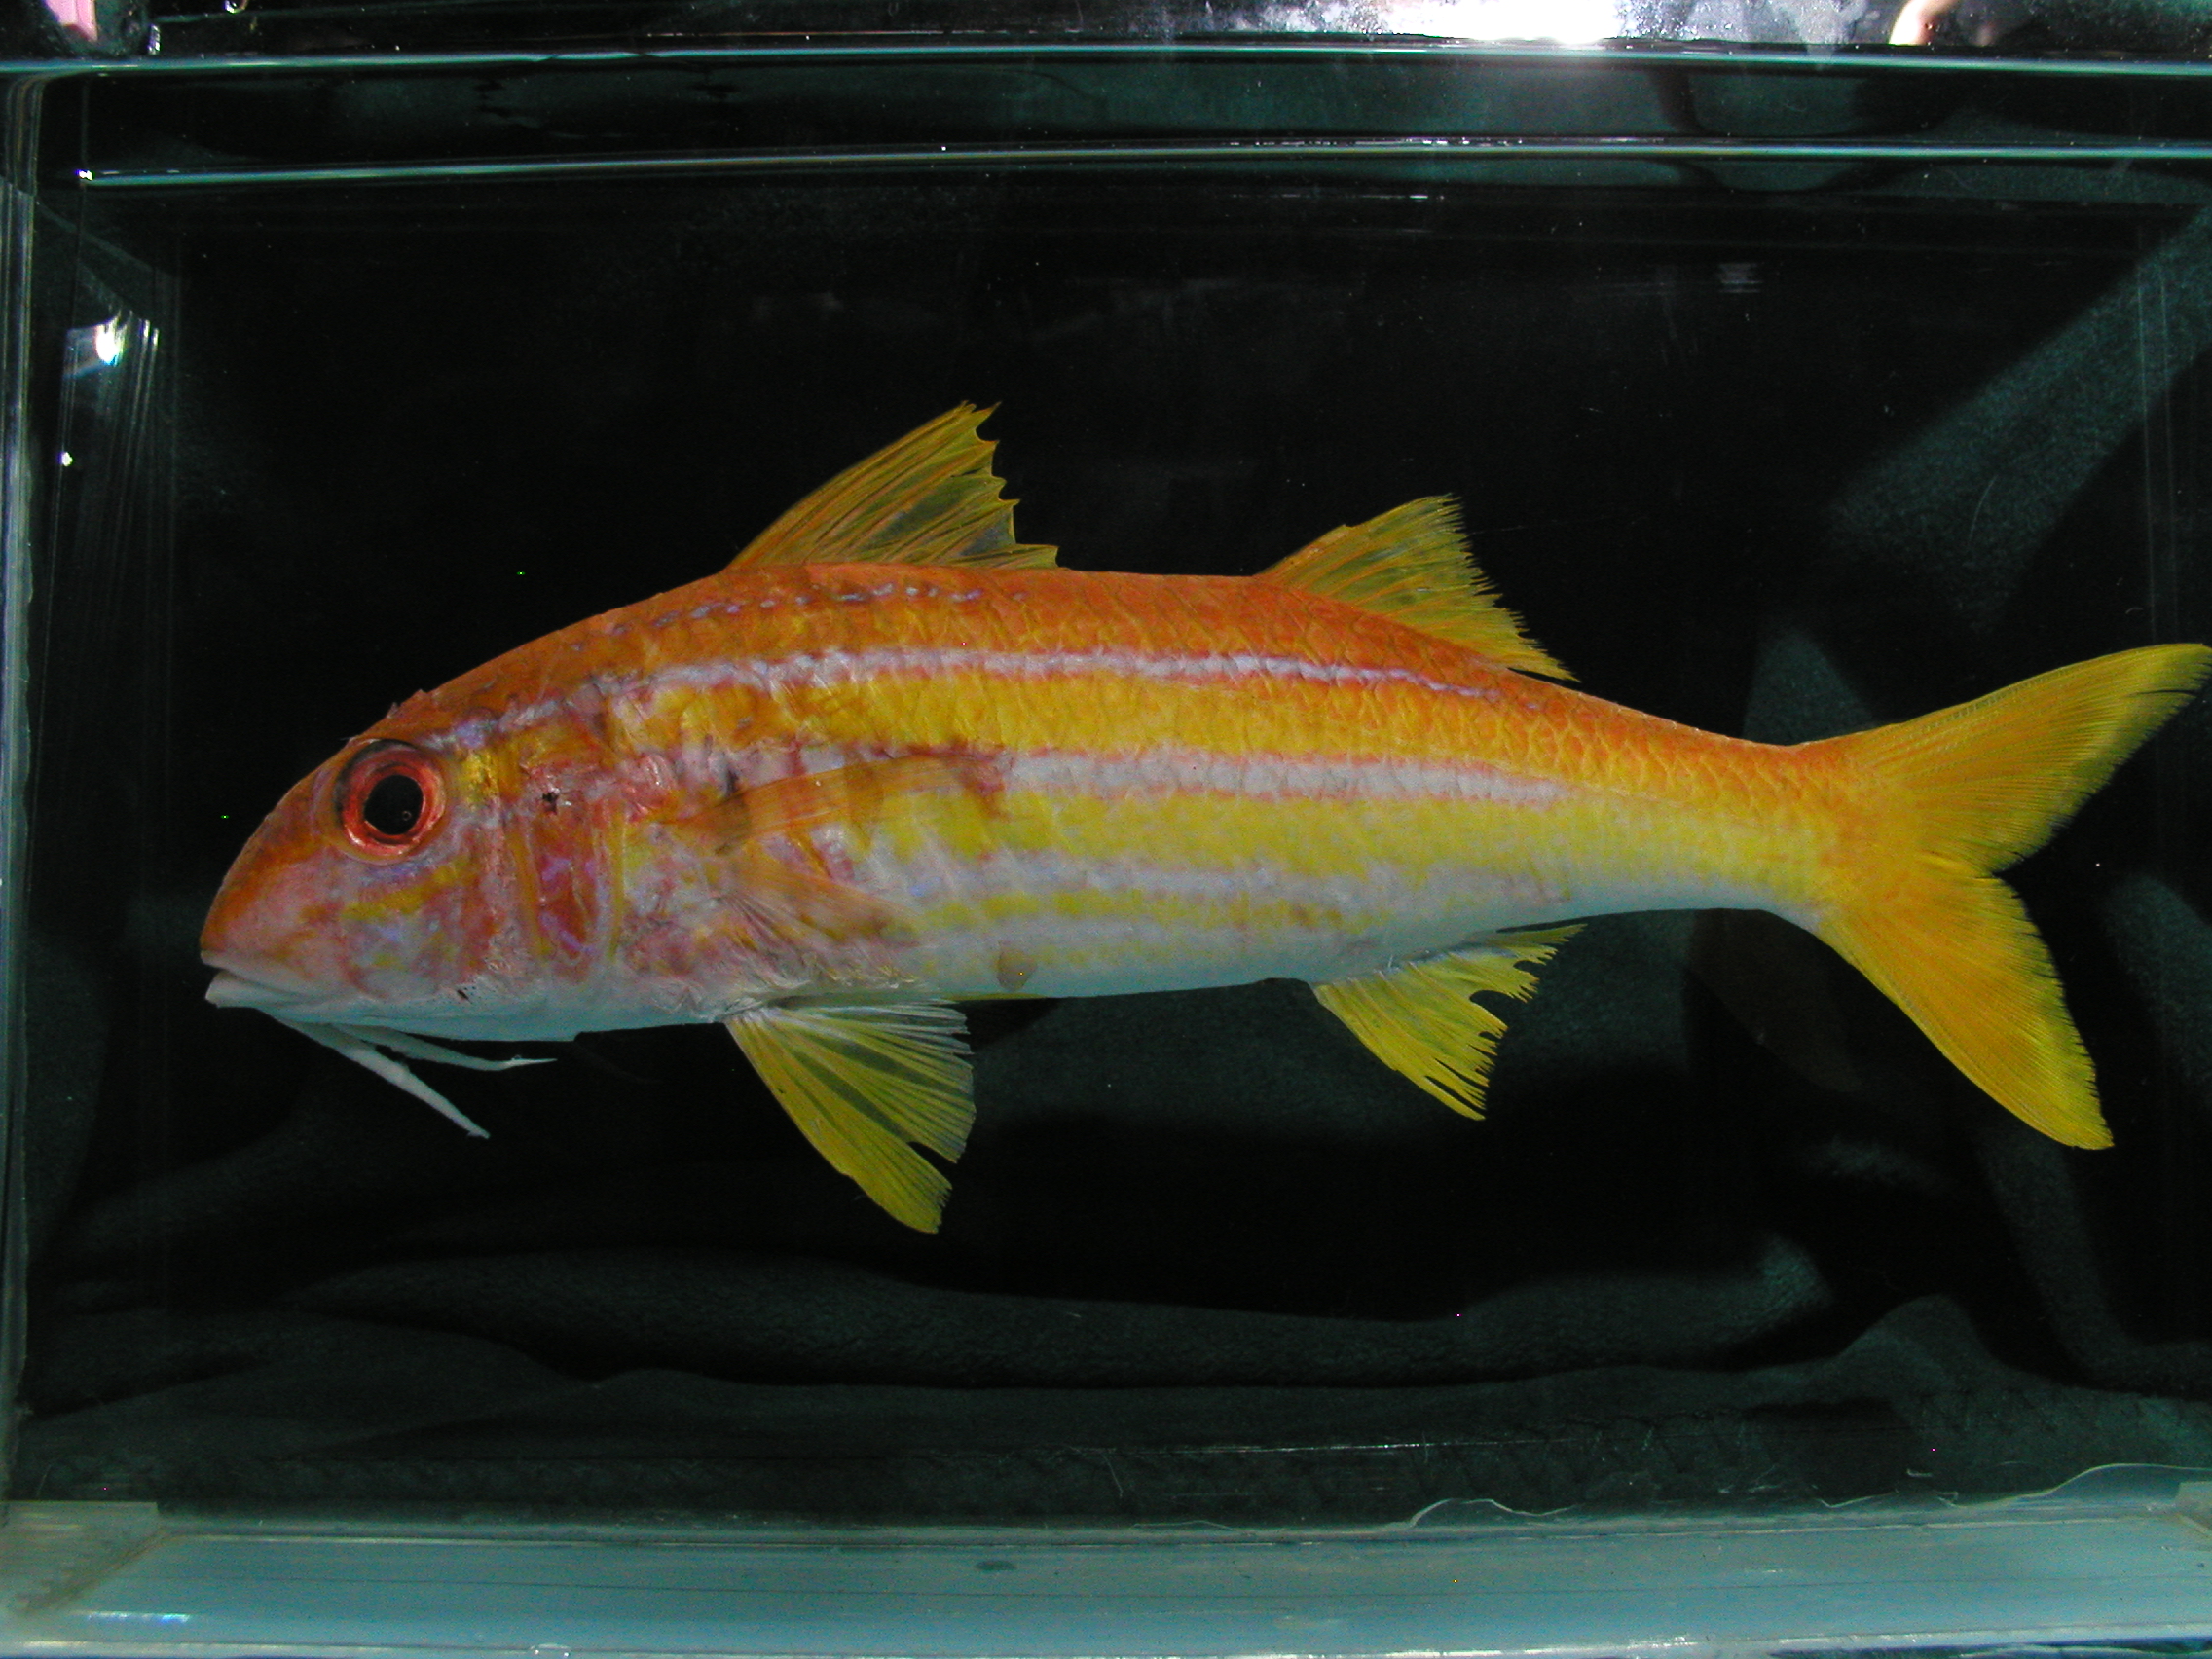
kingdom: Animalia
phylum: Chordata
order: Perciformes
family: Mullidae
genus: Mulloidichthys
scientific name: Mulloidichthys ayliffe
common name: Indian mimic goatfish
